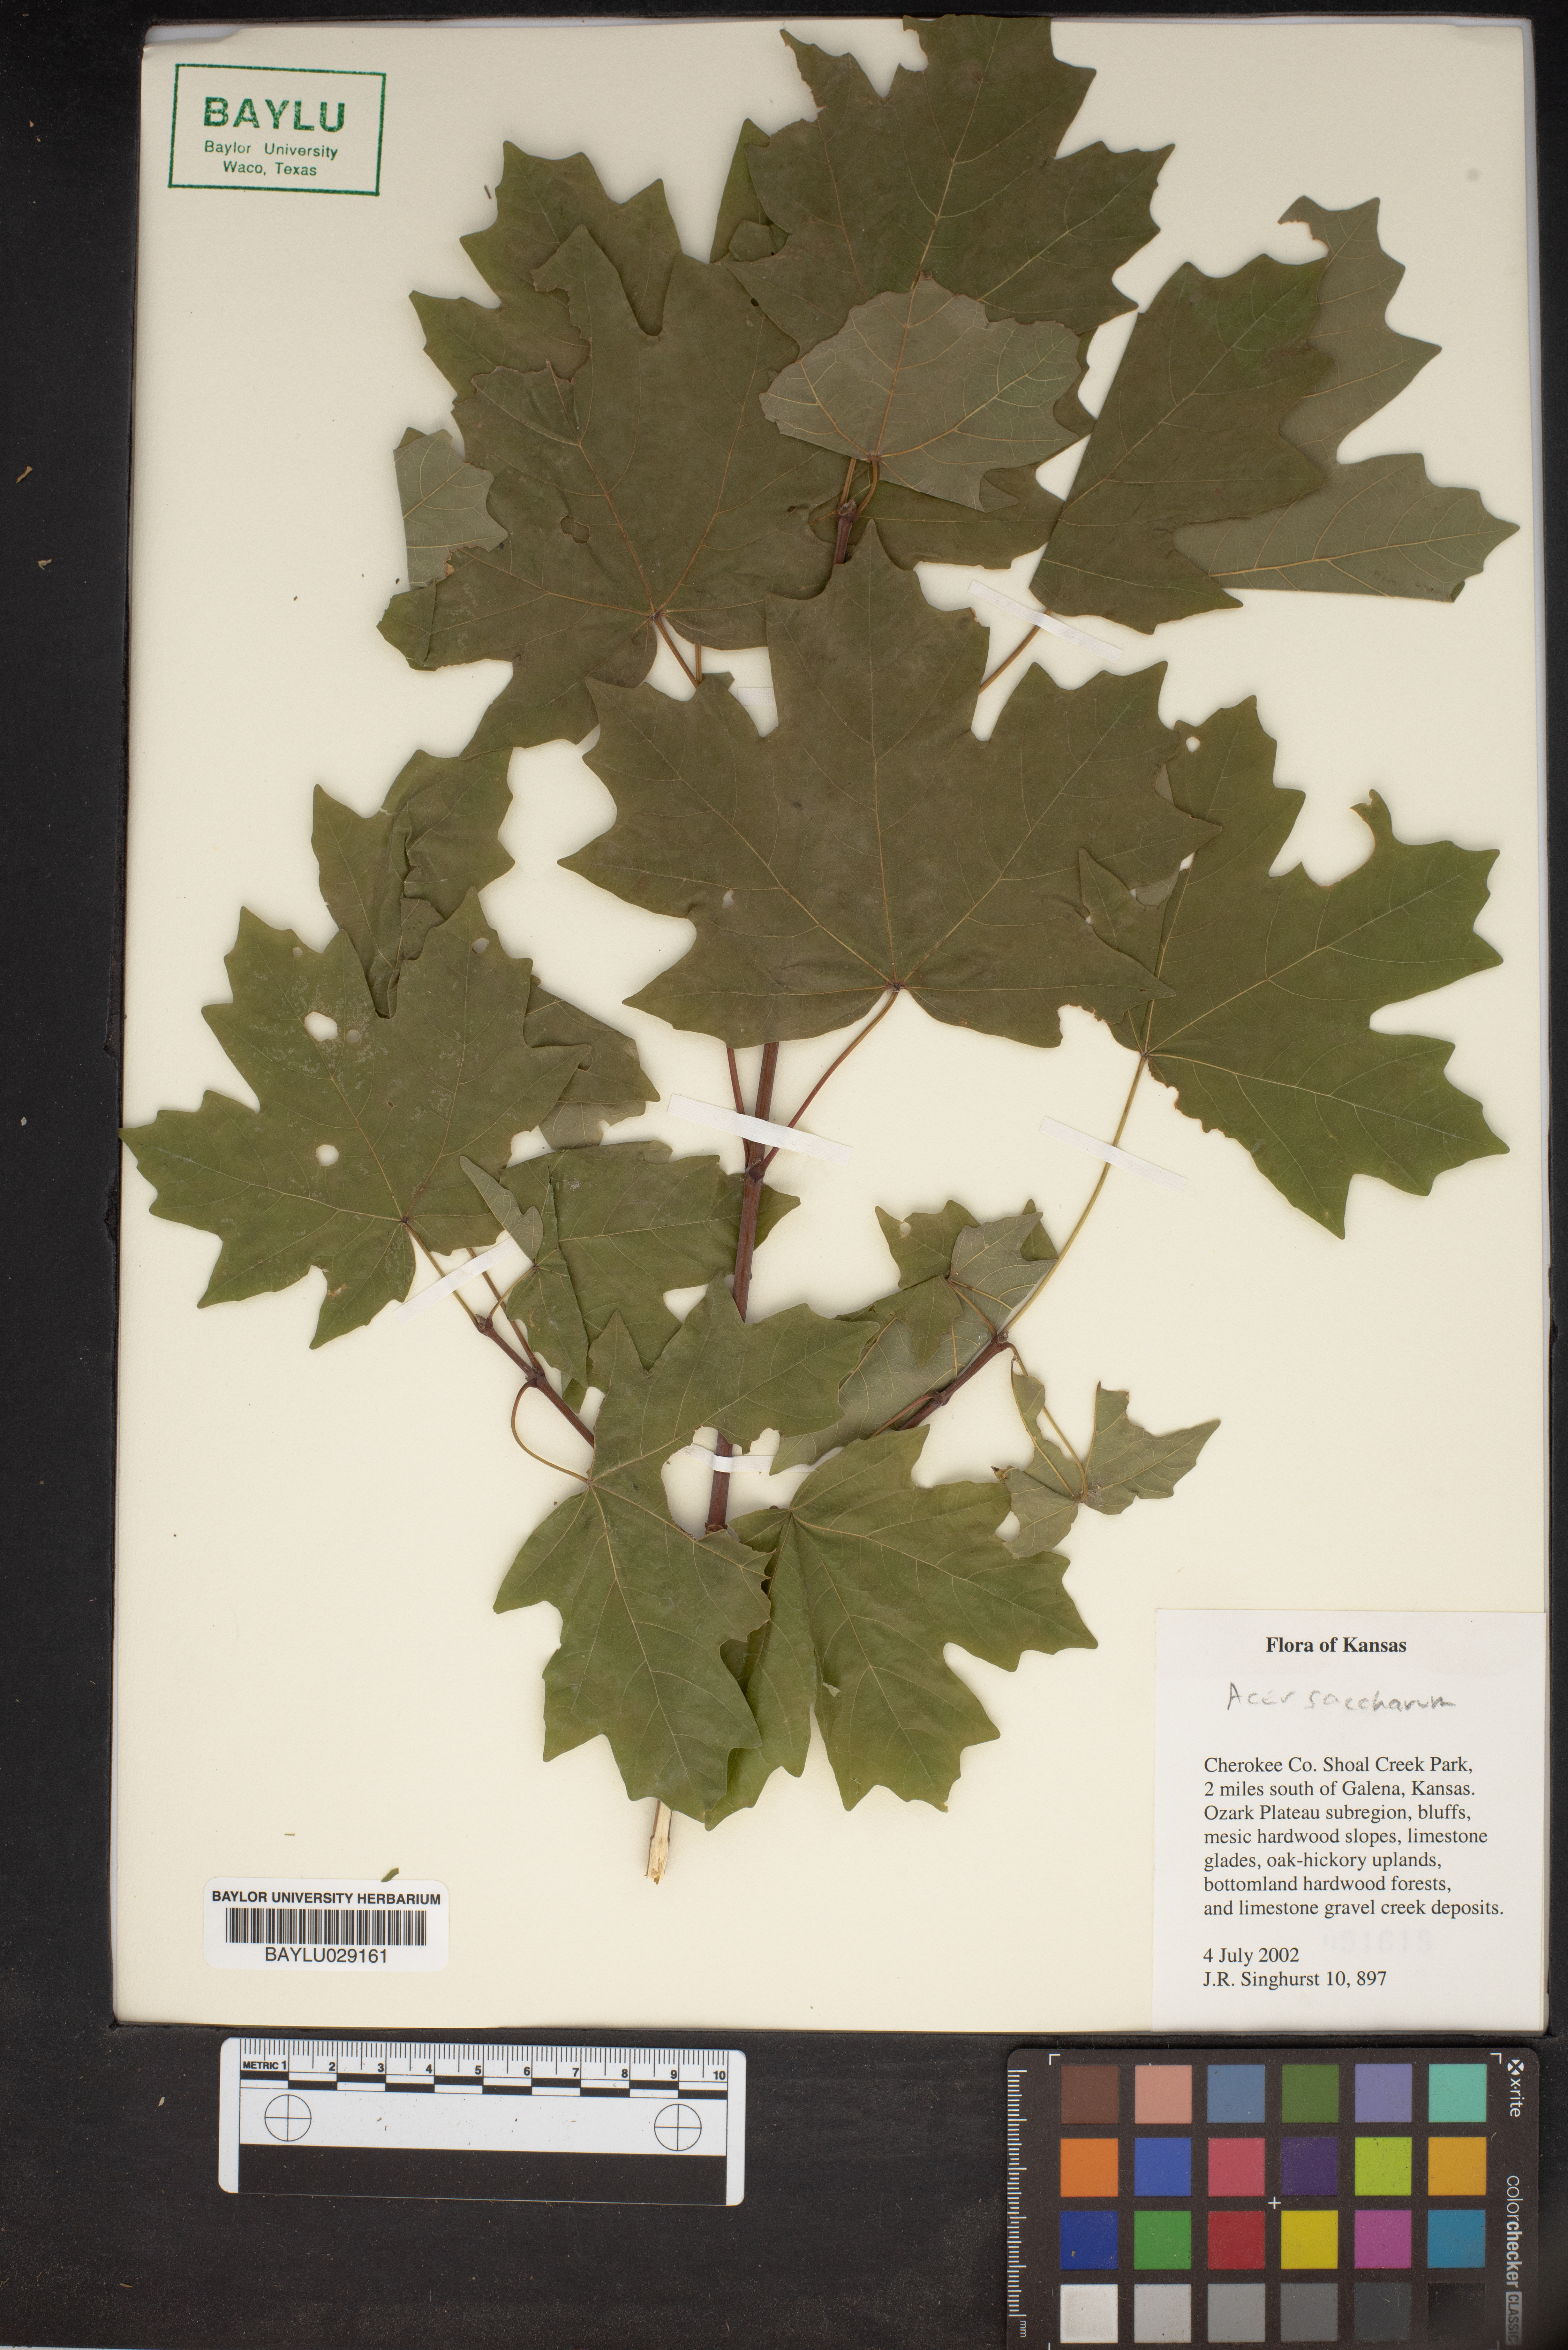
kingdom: Plantae
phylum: Tracheophyta
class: Magnoliopsida
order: Sapindales
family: Sapindaceae
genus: Acer
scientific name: Acer saccharum
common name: Sugar maple
